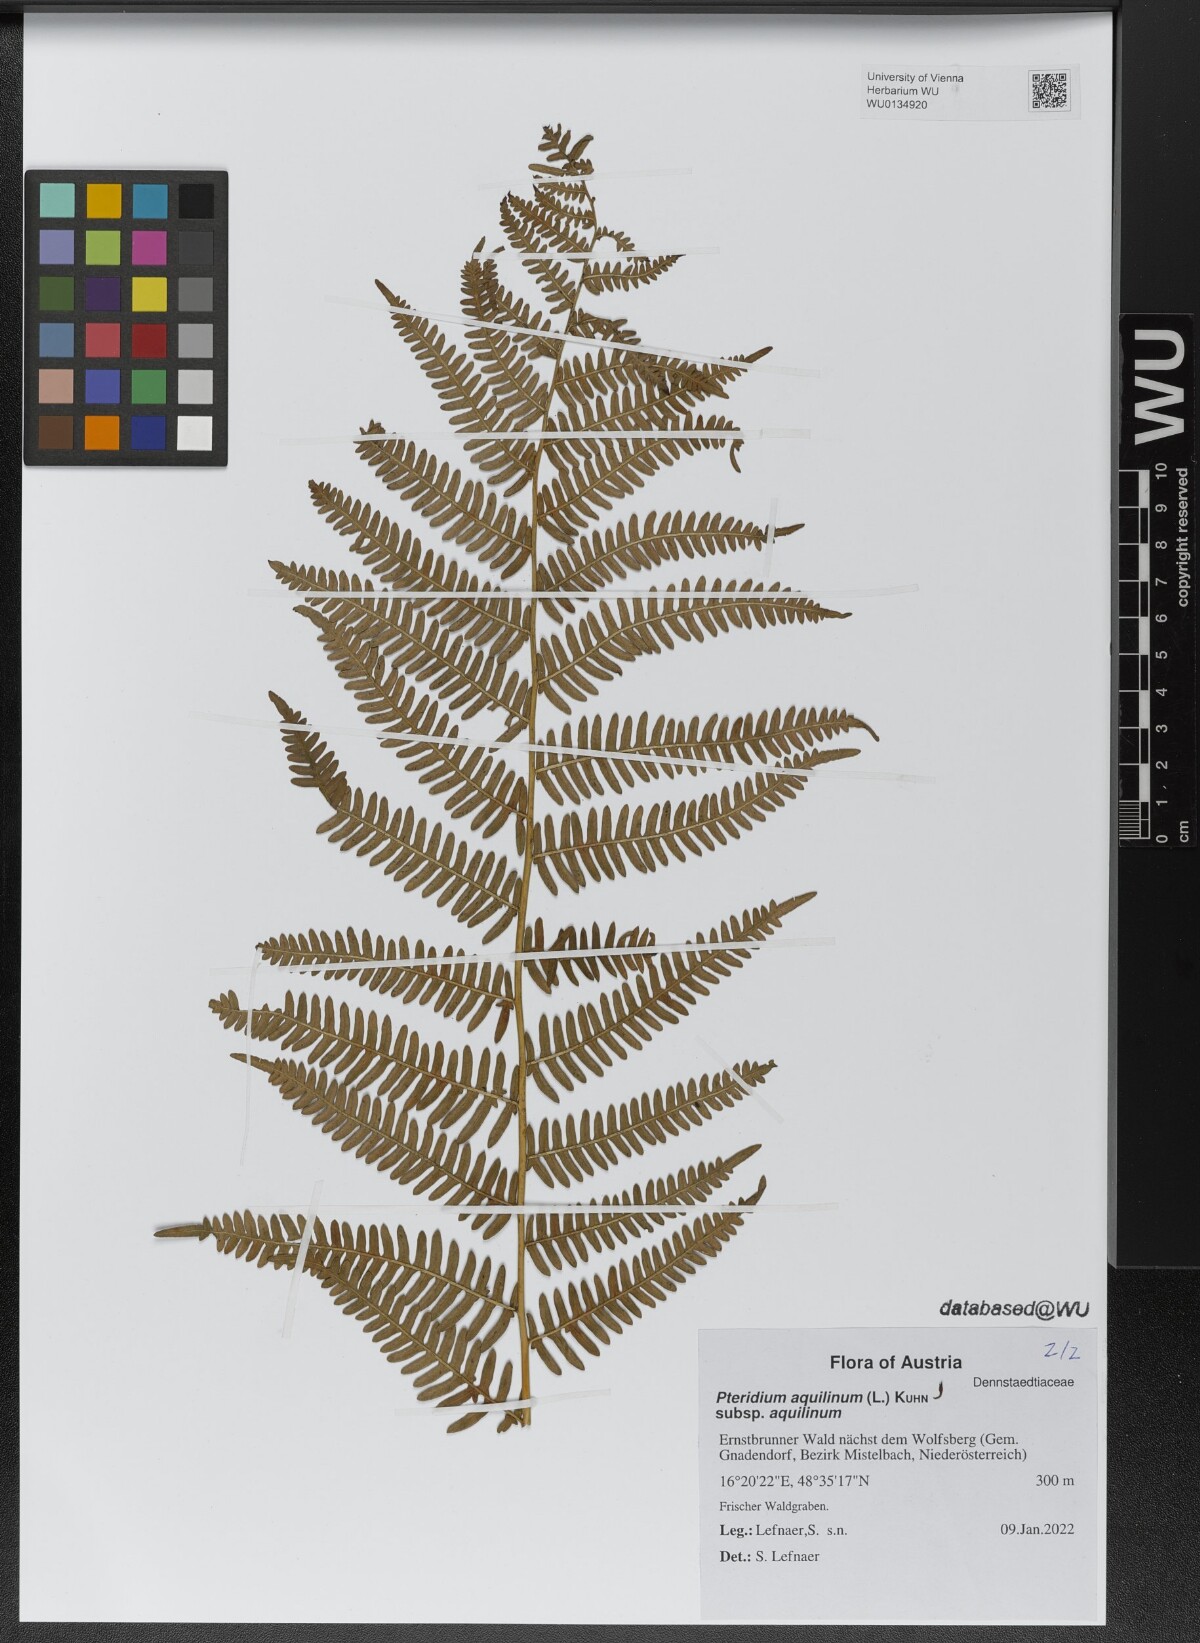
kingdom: Plantae
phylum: Tracheophyta
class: Polypodiopsida
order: Polypodiales
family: Dennstaedtiaceae
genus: Pteridium
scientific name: Pteridium aquilinum
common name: Bracken
